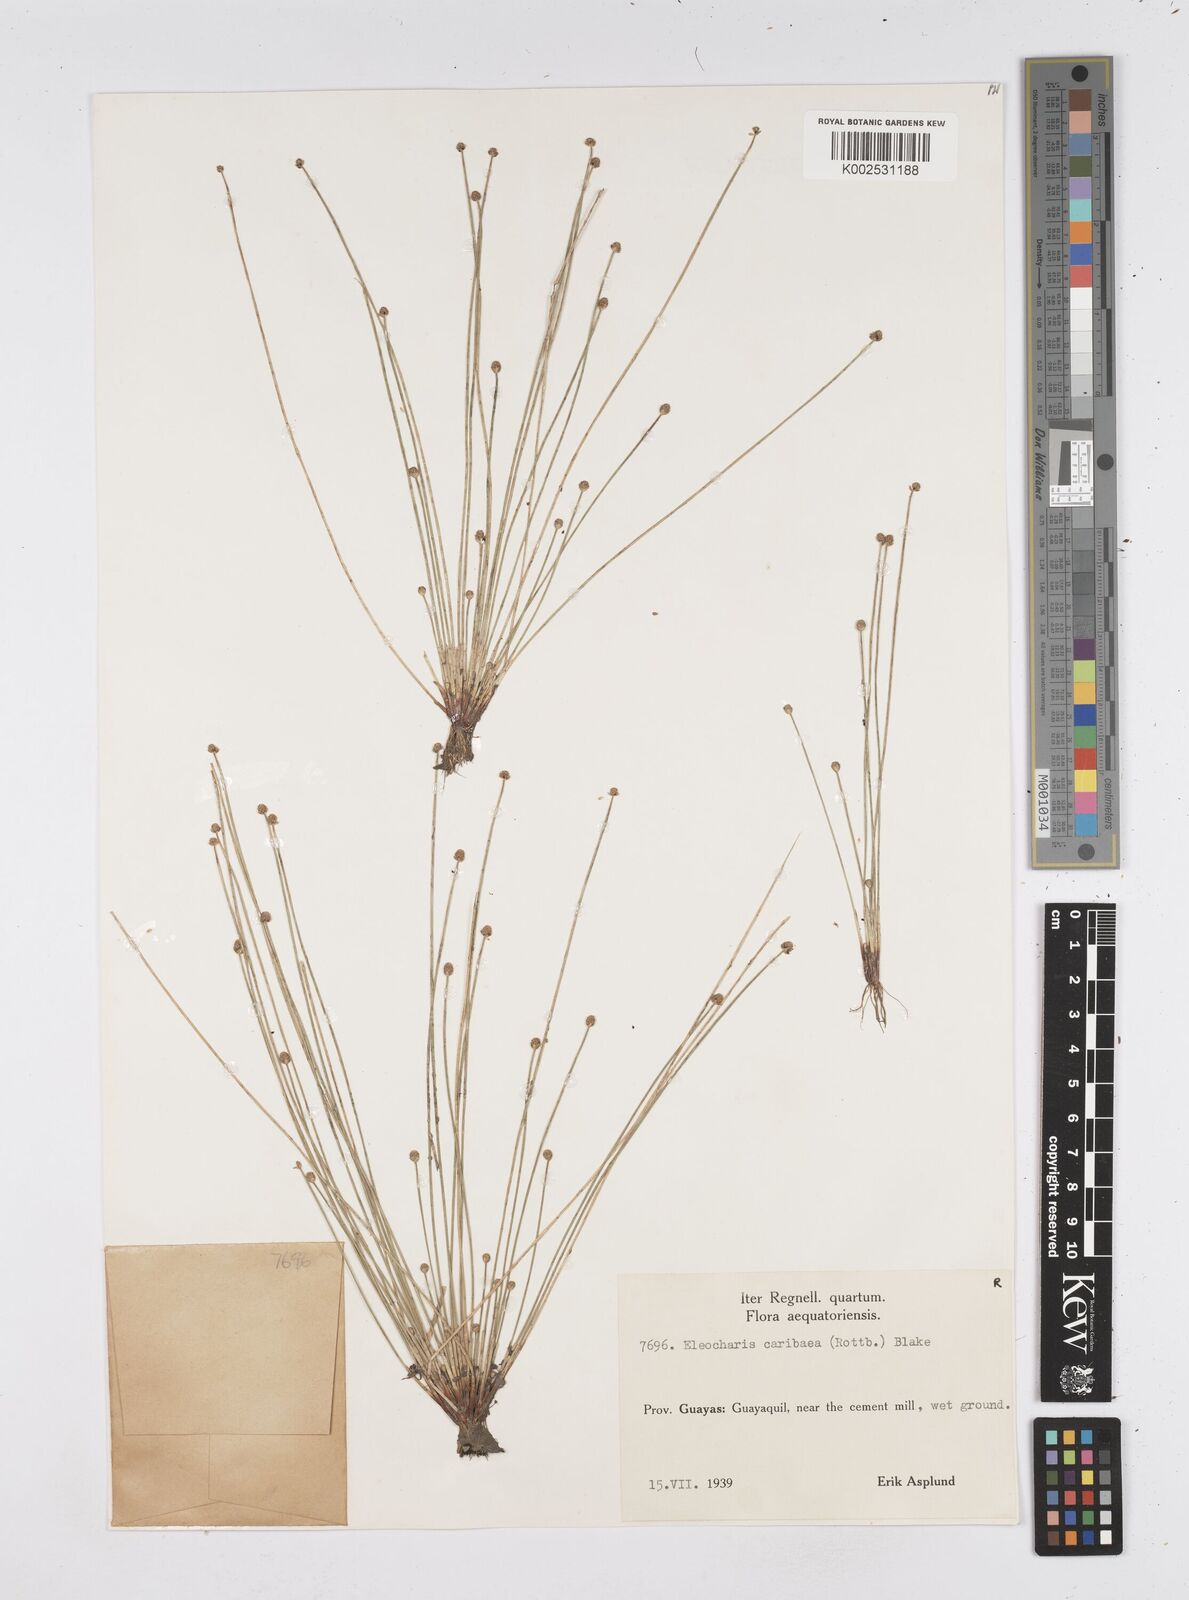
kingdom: Plantae
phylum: Tracheophyta
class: Liliopsida
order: Poales
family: Cyperaceae
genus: Eleocharis
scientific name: Eleocharis geniculata
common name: Canada spikesedge
